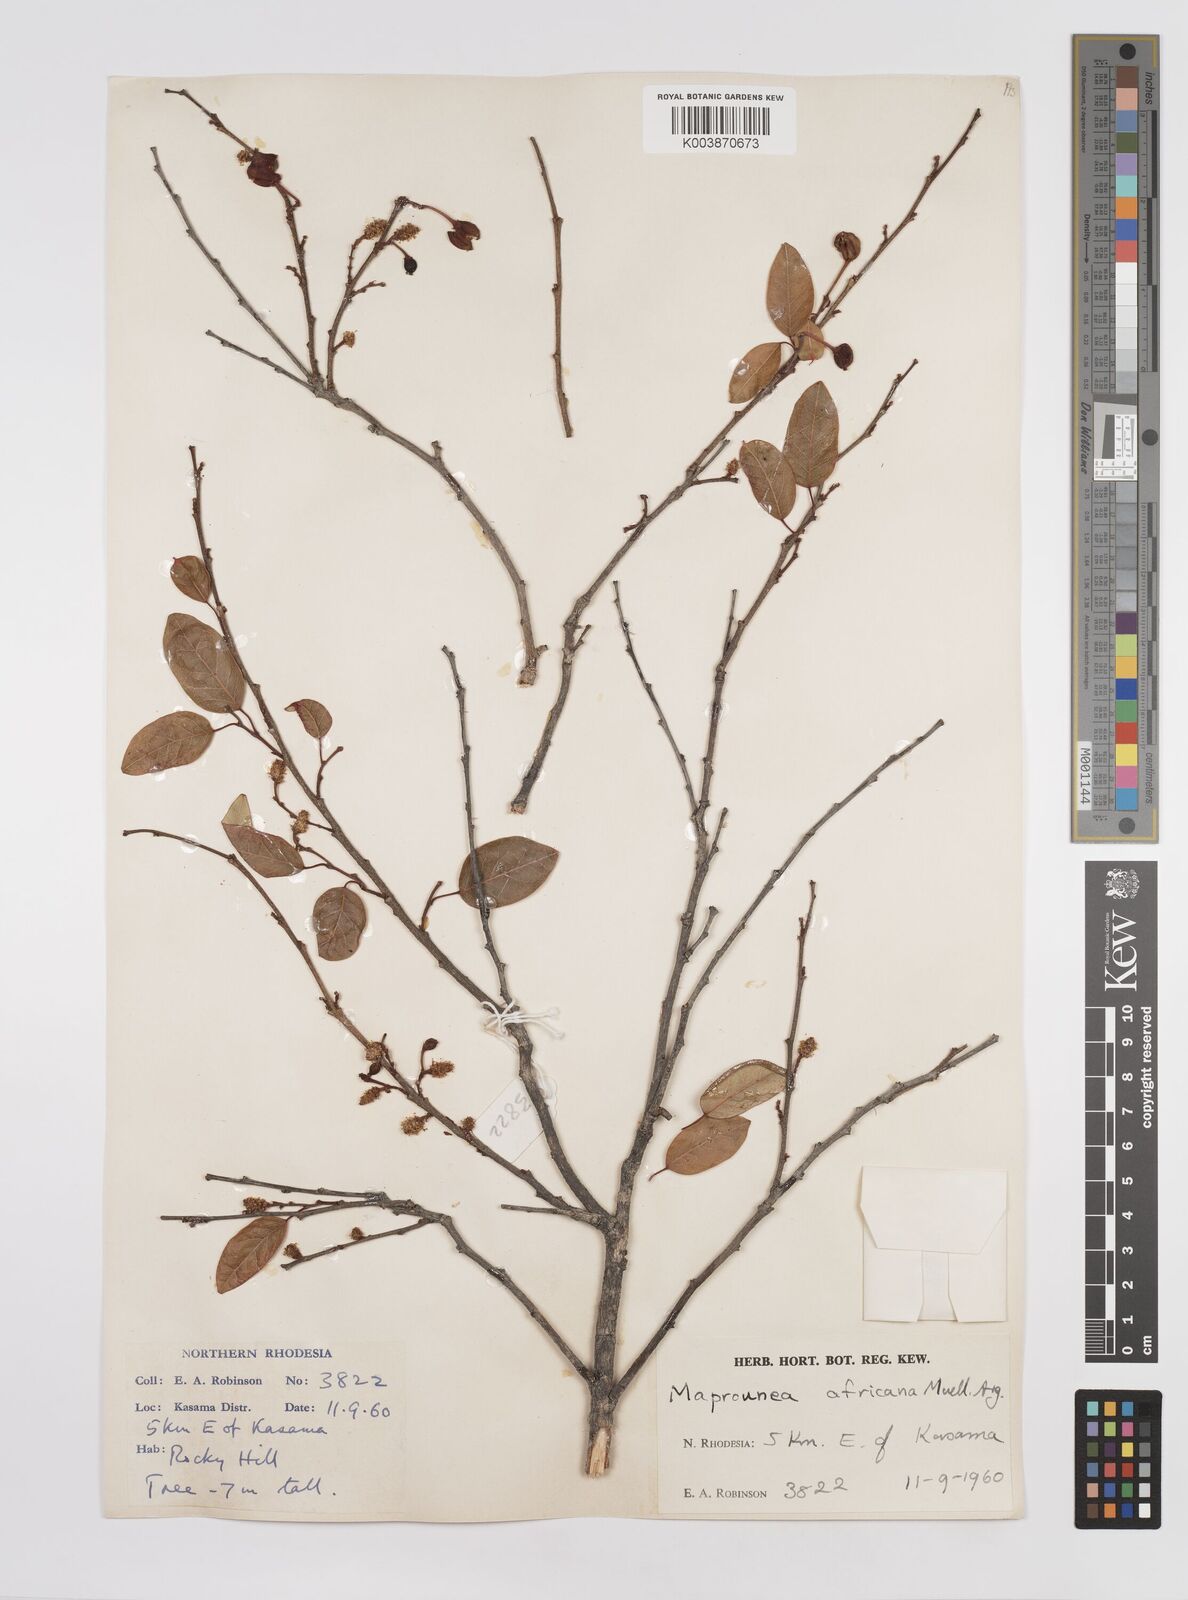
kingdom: Plantae
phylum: Tracheophyta
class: Magnoliopsida
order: Malpighiales
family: Euphorbiaceae
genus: Maprounea
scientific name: Maprounea africana
